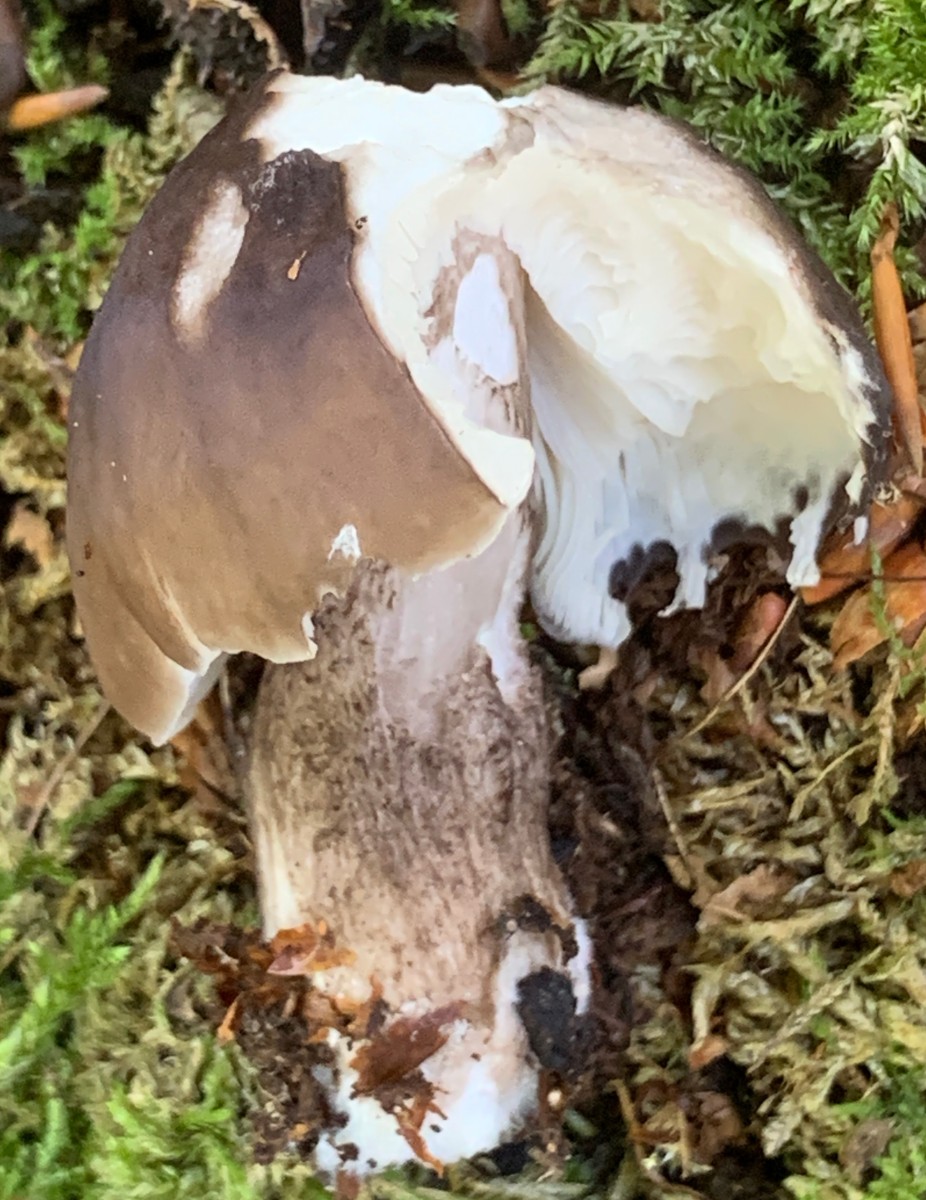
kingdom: Fungi
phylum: Basidiomycota
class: Agaricomycetes
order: Agaricales
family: Pluteaceae
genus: Pluteus
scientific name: Pluteus cervinus
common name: sodfarvet skærmhat
